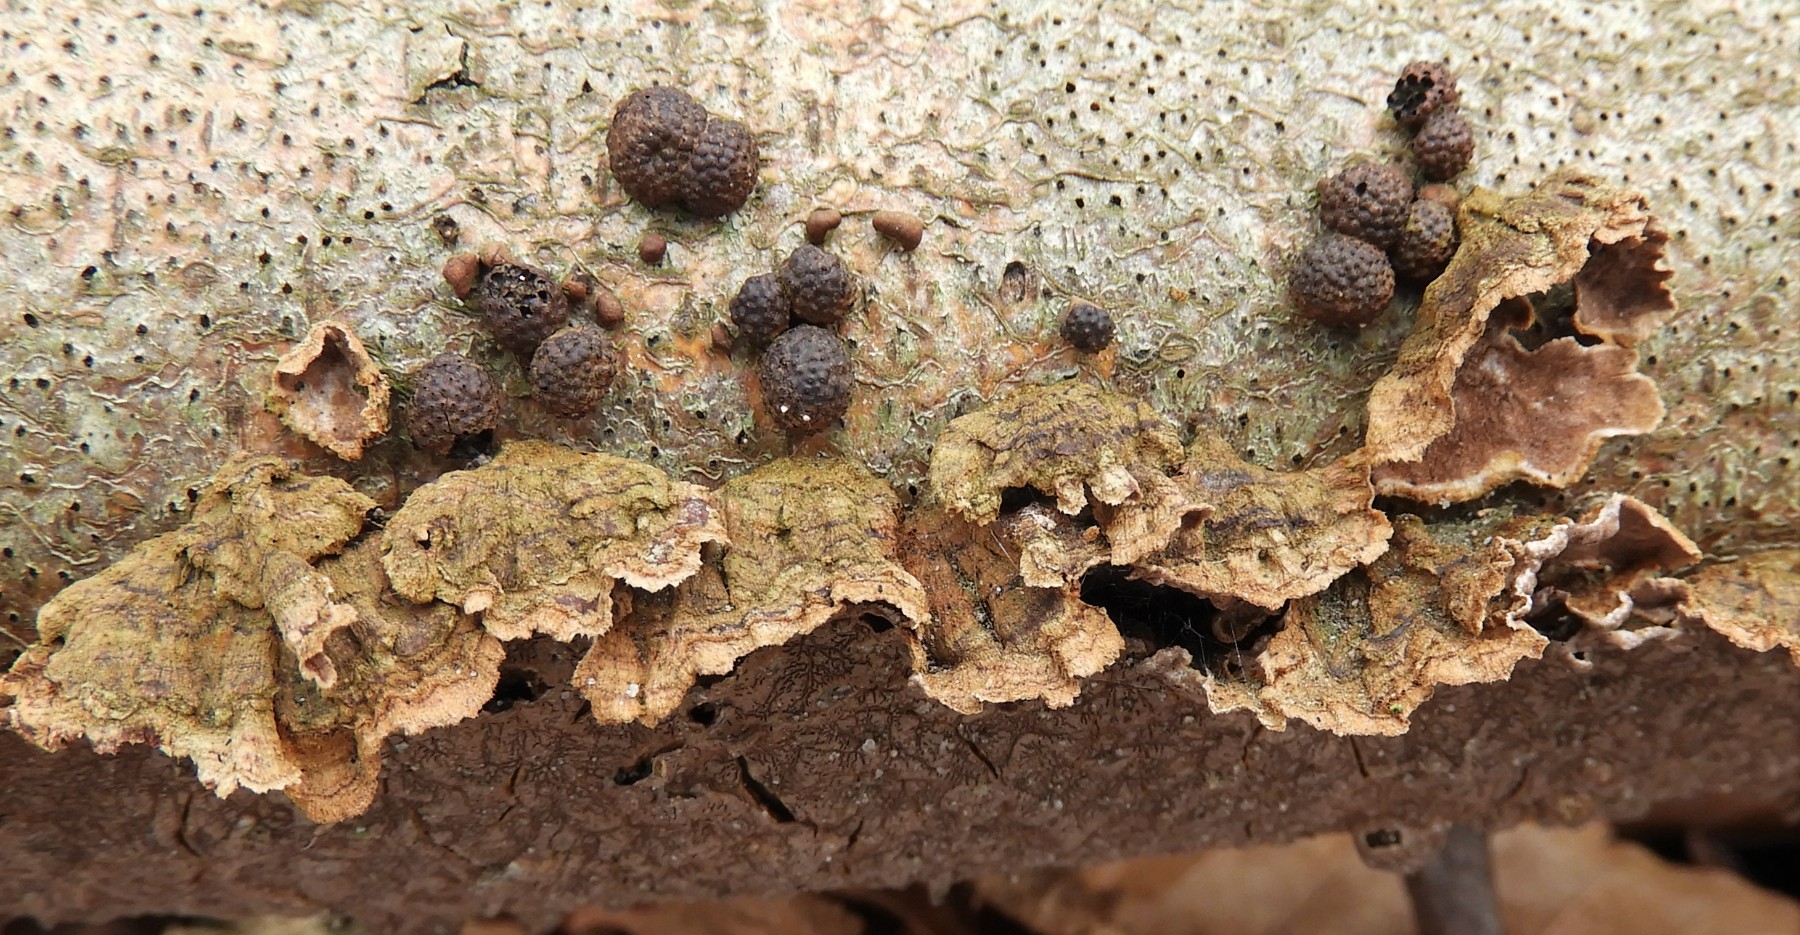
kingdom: Fungi
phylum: Basidiomycota
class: Agaricomycetes
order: Hymenochaetales
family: Hymenochaetaceae
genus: Hydnoporia
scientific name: Hydnoporia tabacina
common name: tobaksbrun ruslædersvamp
